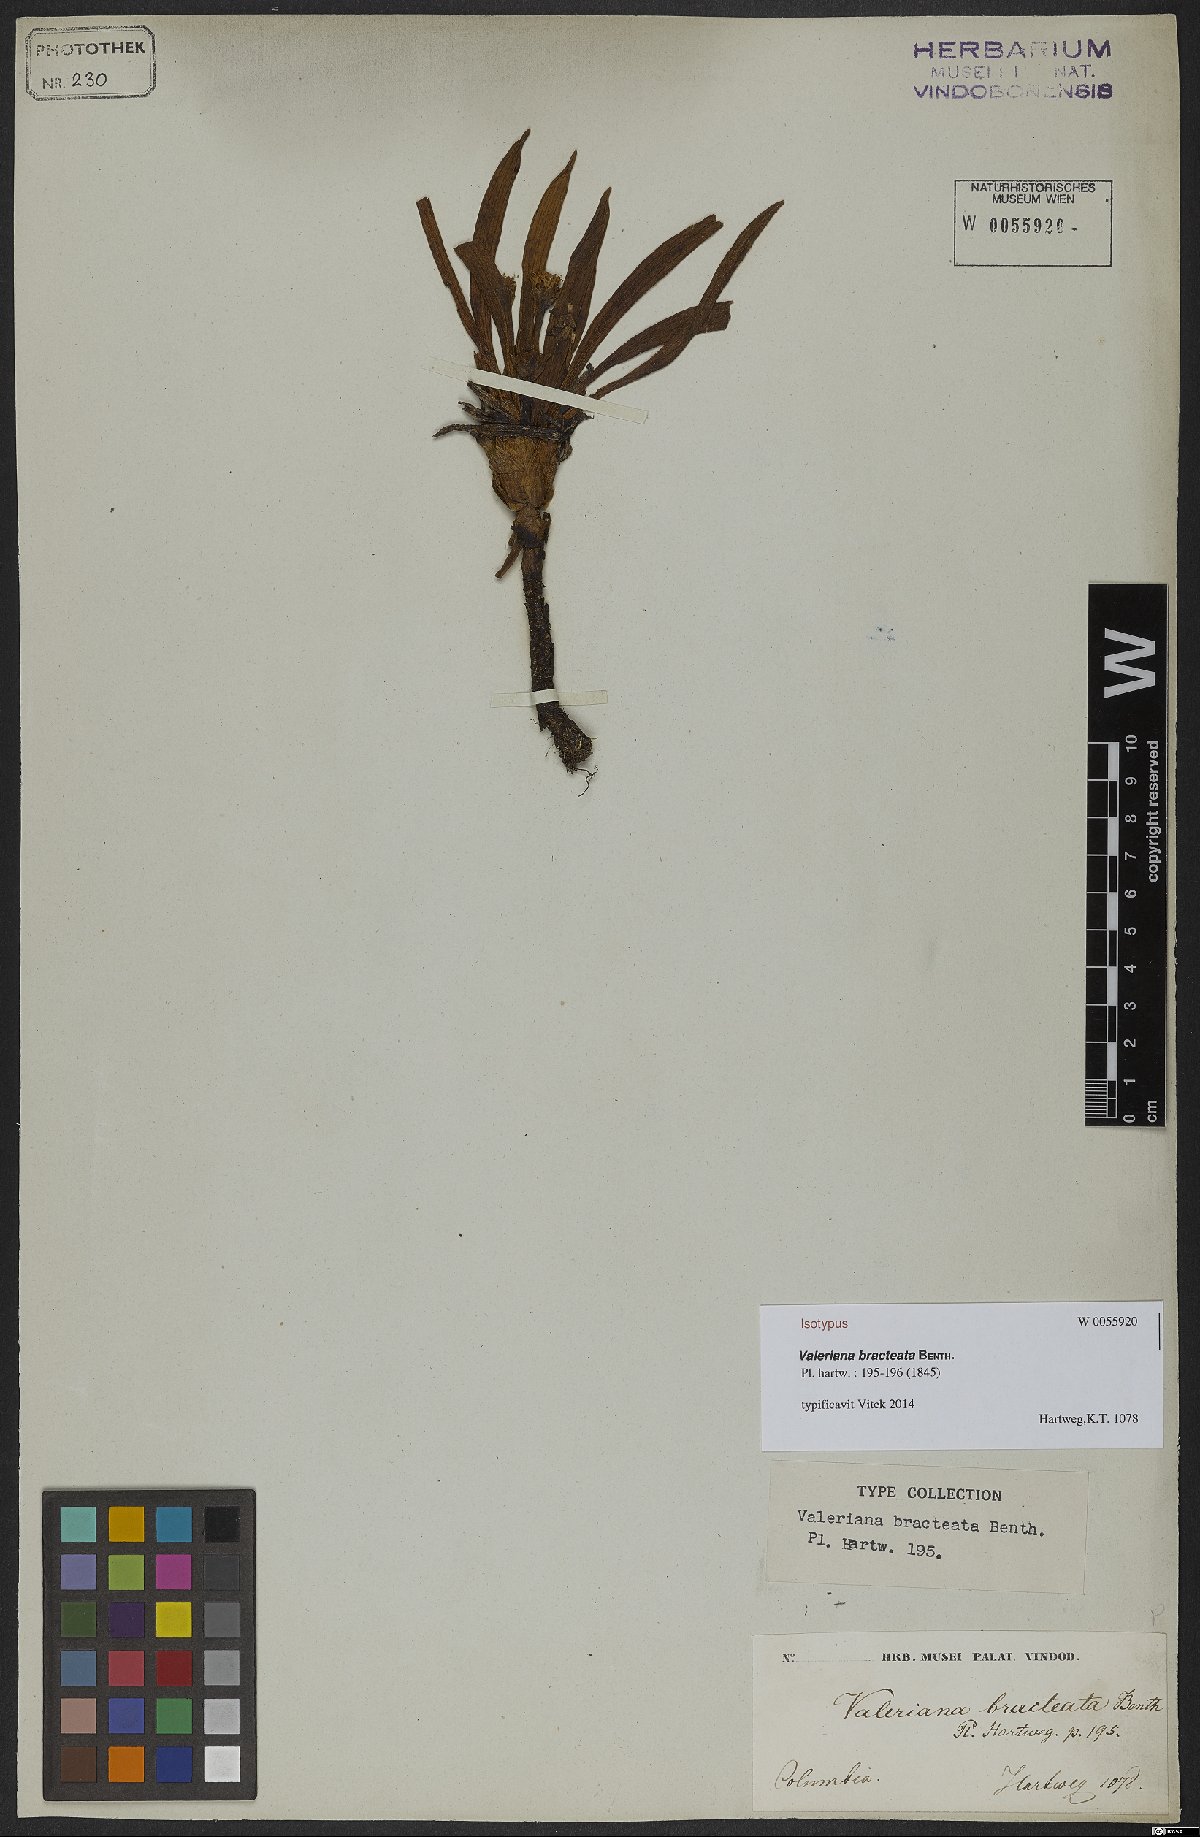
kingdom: Plantae
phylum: Tracheophyta
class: Magnoliopsida
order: Dipsacales
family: Caprifoliaceae
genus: Valeriana
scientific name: Valeriana bracteata
